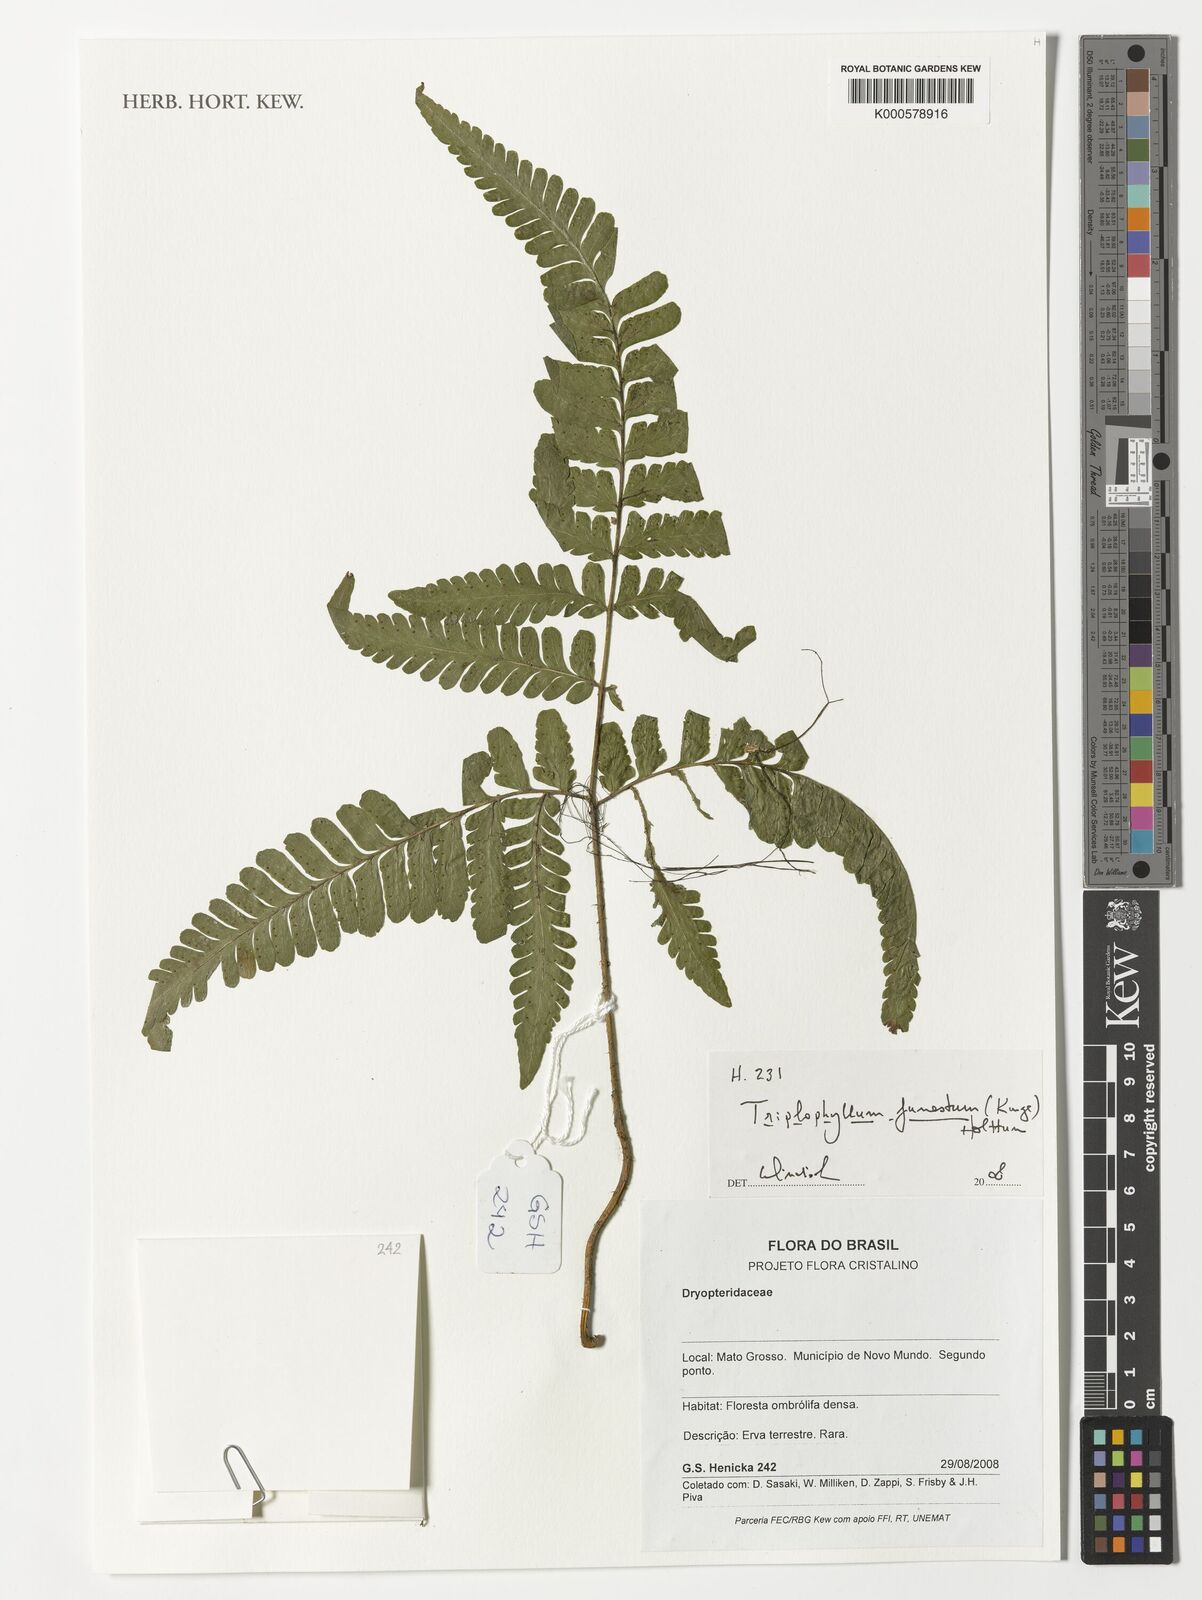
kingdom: Plantae
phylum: Tracheophyta
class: Polypodiopsida
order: Polypodiales
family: Tectariaceae
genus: Triplophyllum
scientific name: Triplophyllum funestum
